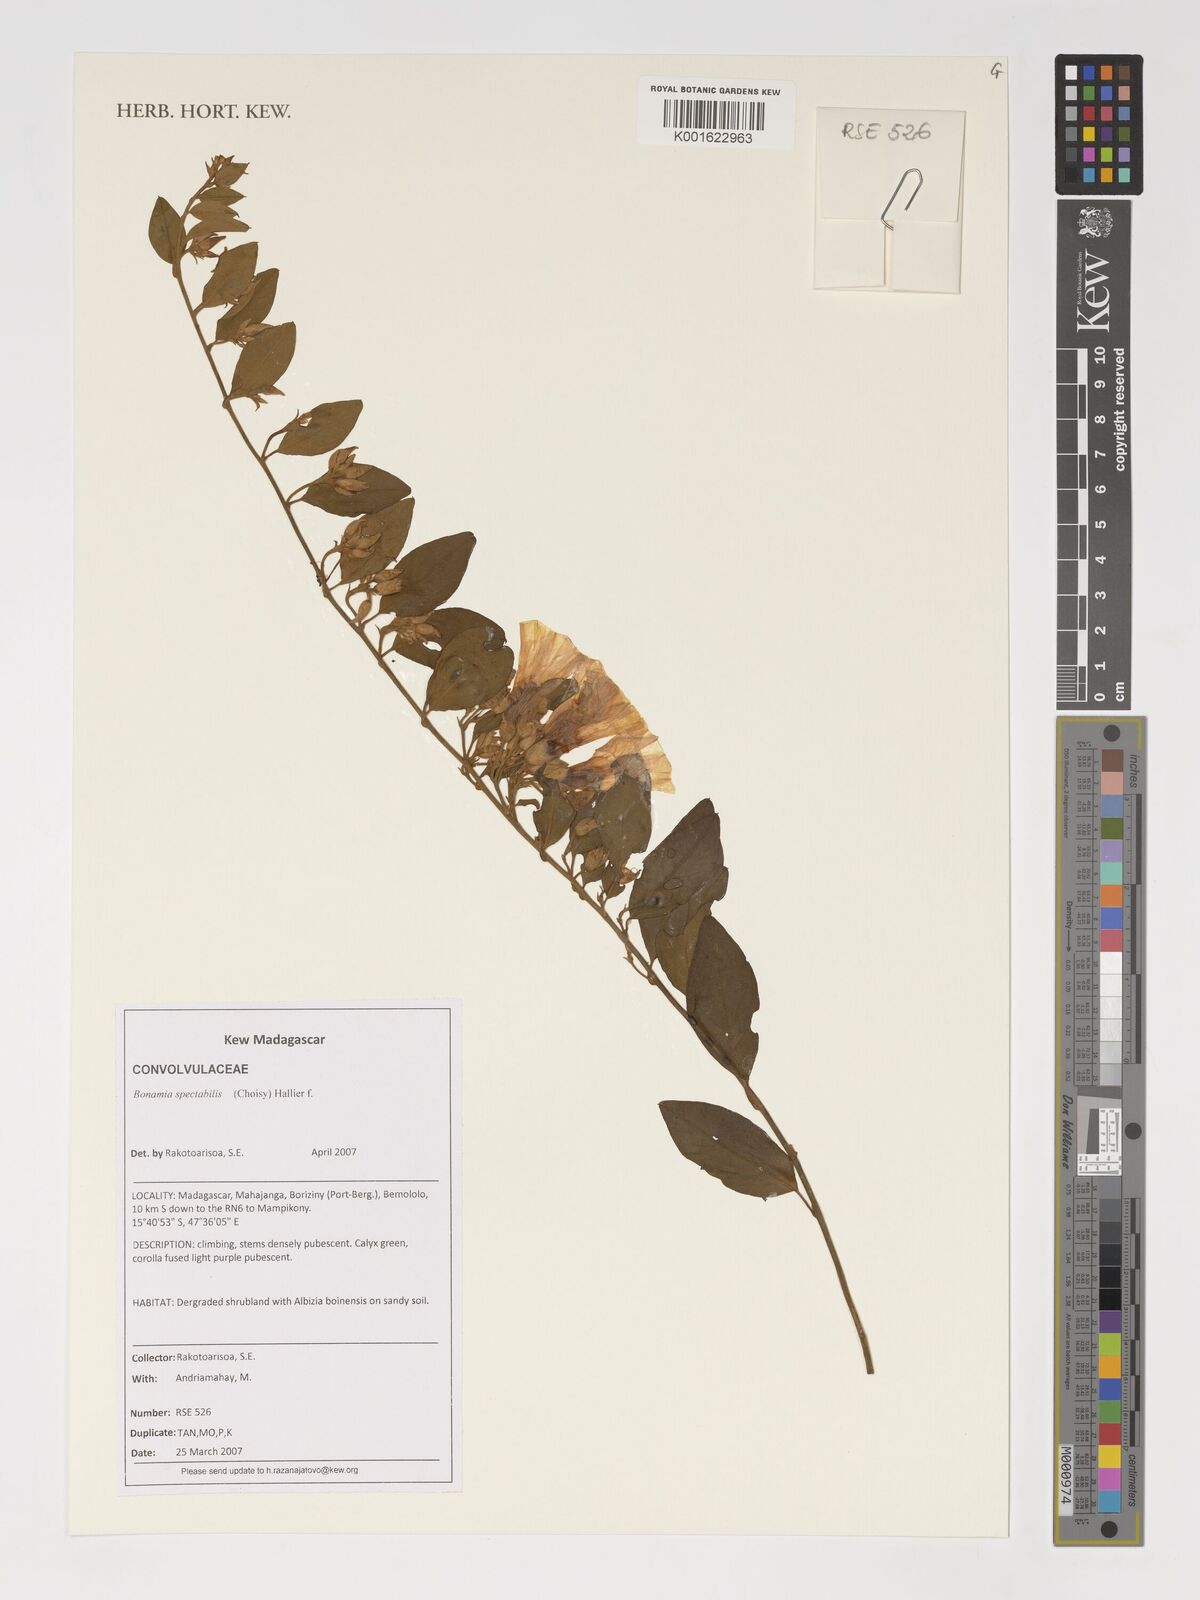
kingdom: Plantae
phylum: Tracheophyta
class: Magnoliopsida
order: Solanales
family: Convolvulaceae
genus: Bonamia
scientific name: Bonamia spectabilis
